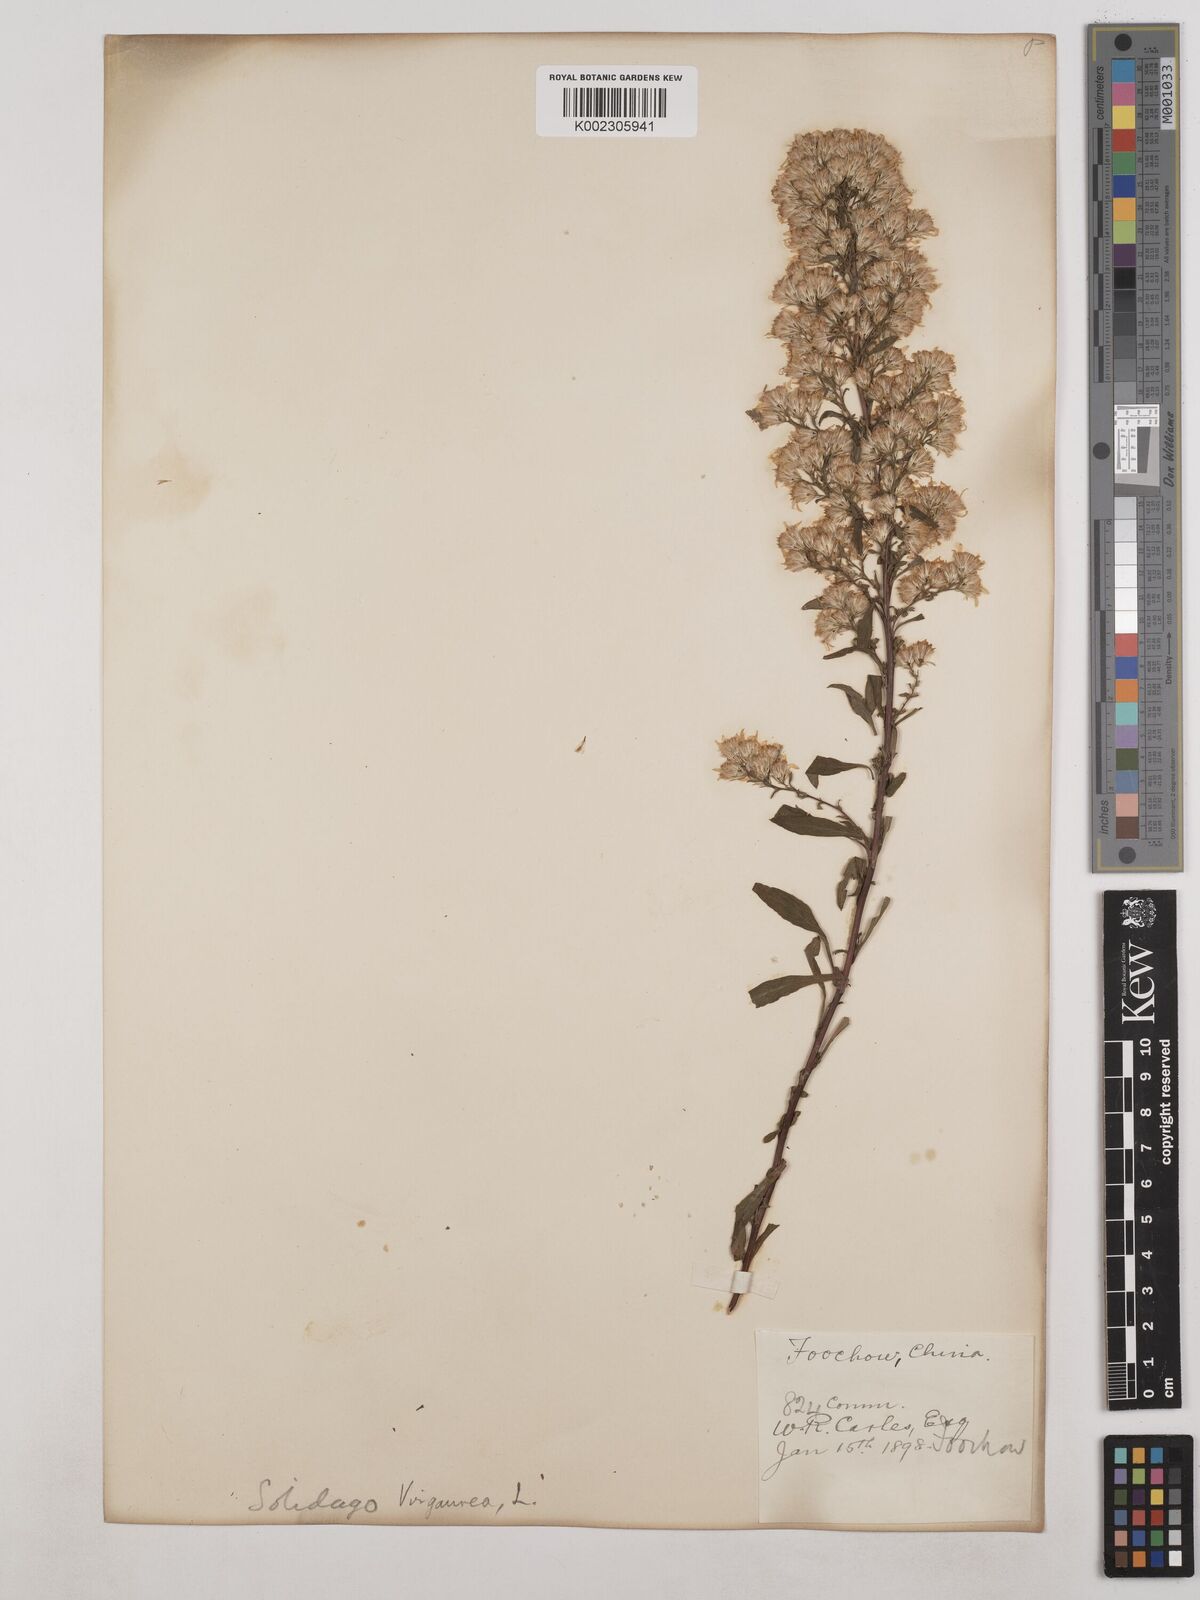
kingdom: Plantae
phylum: Tracheophyta
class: Magnoliopsida
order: Asterales
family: Asteraceae
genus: Solidago
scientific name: Solidago virgaurea
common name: Goldenrod
